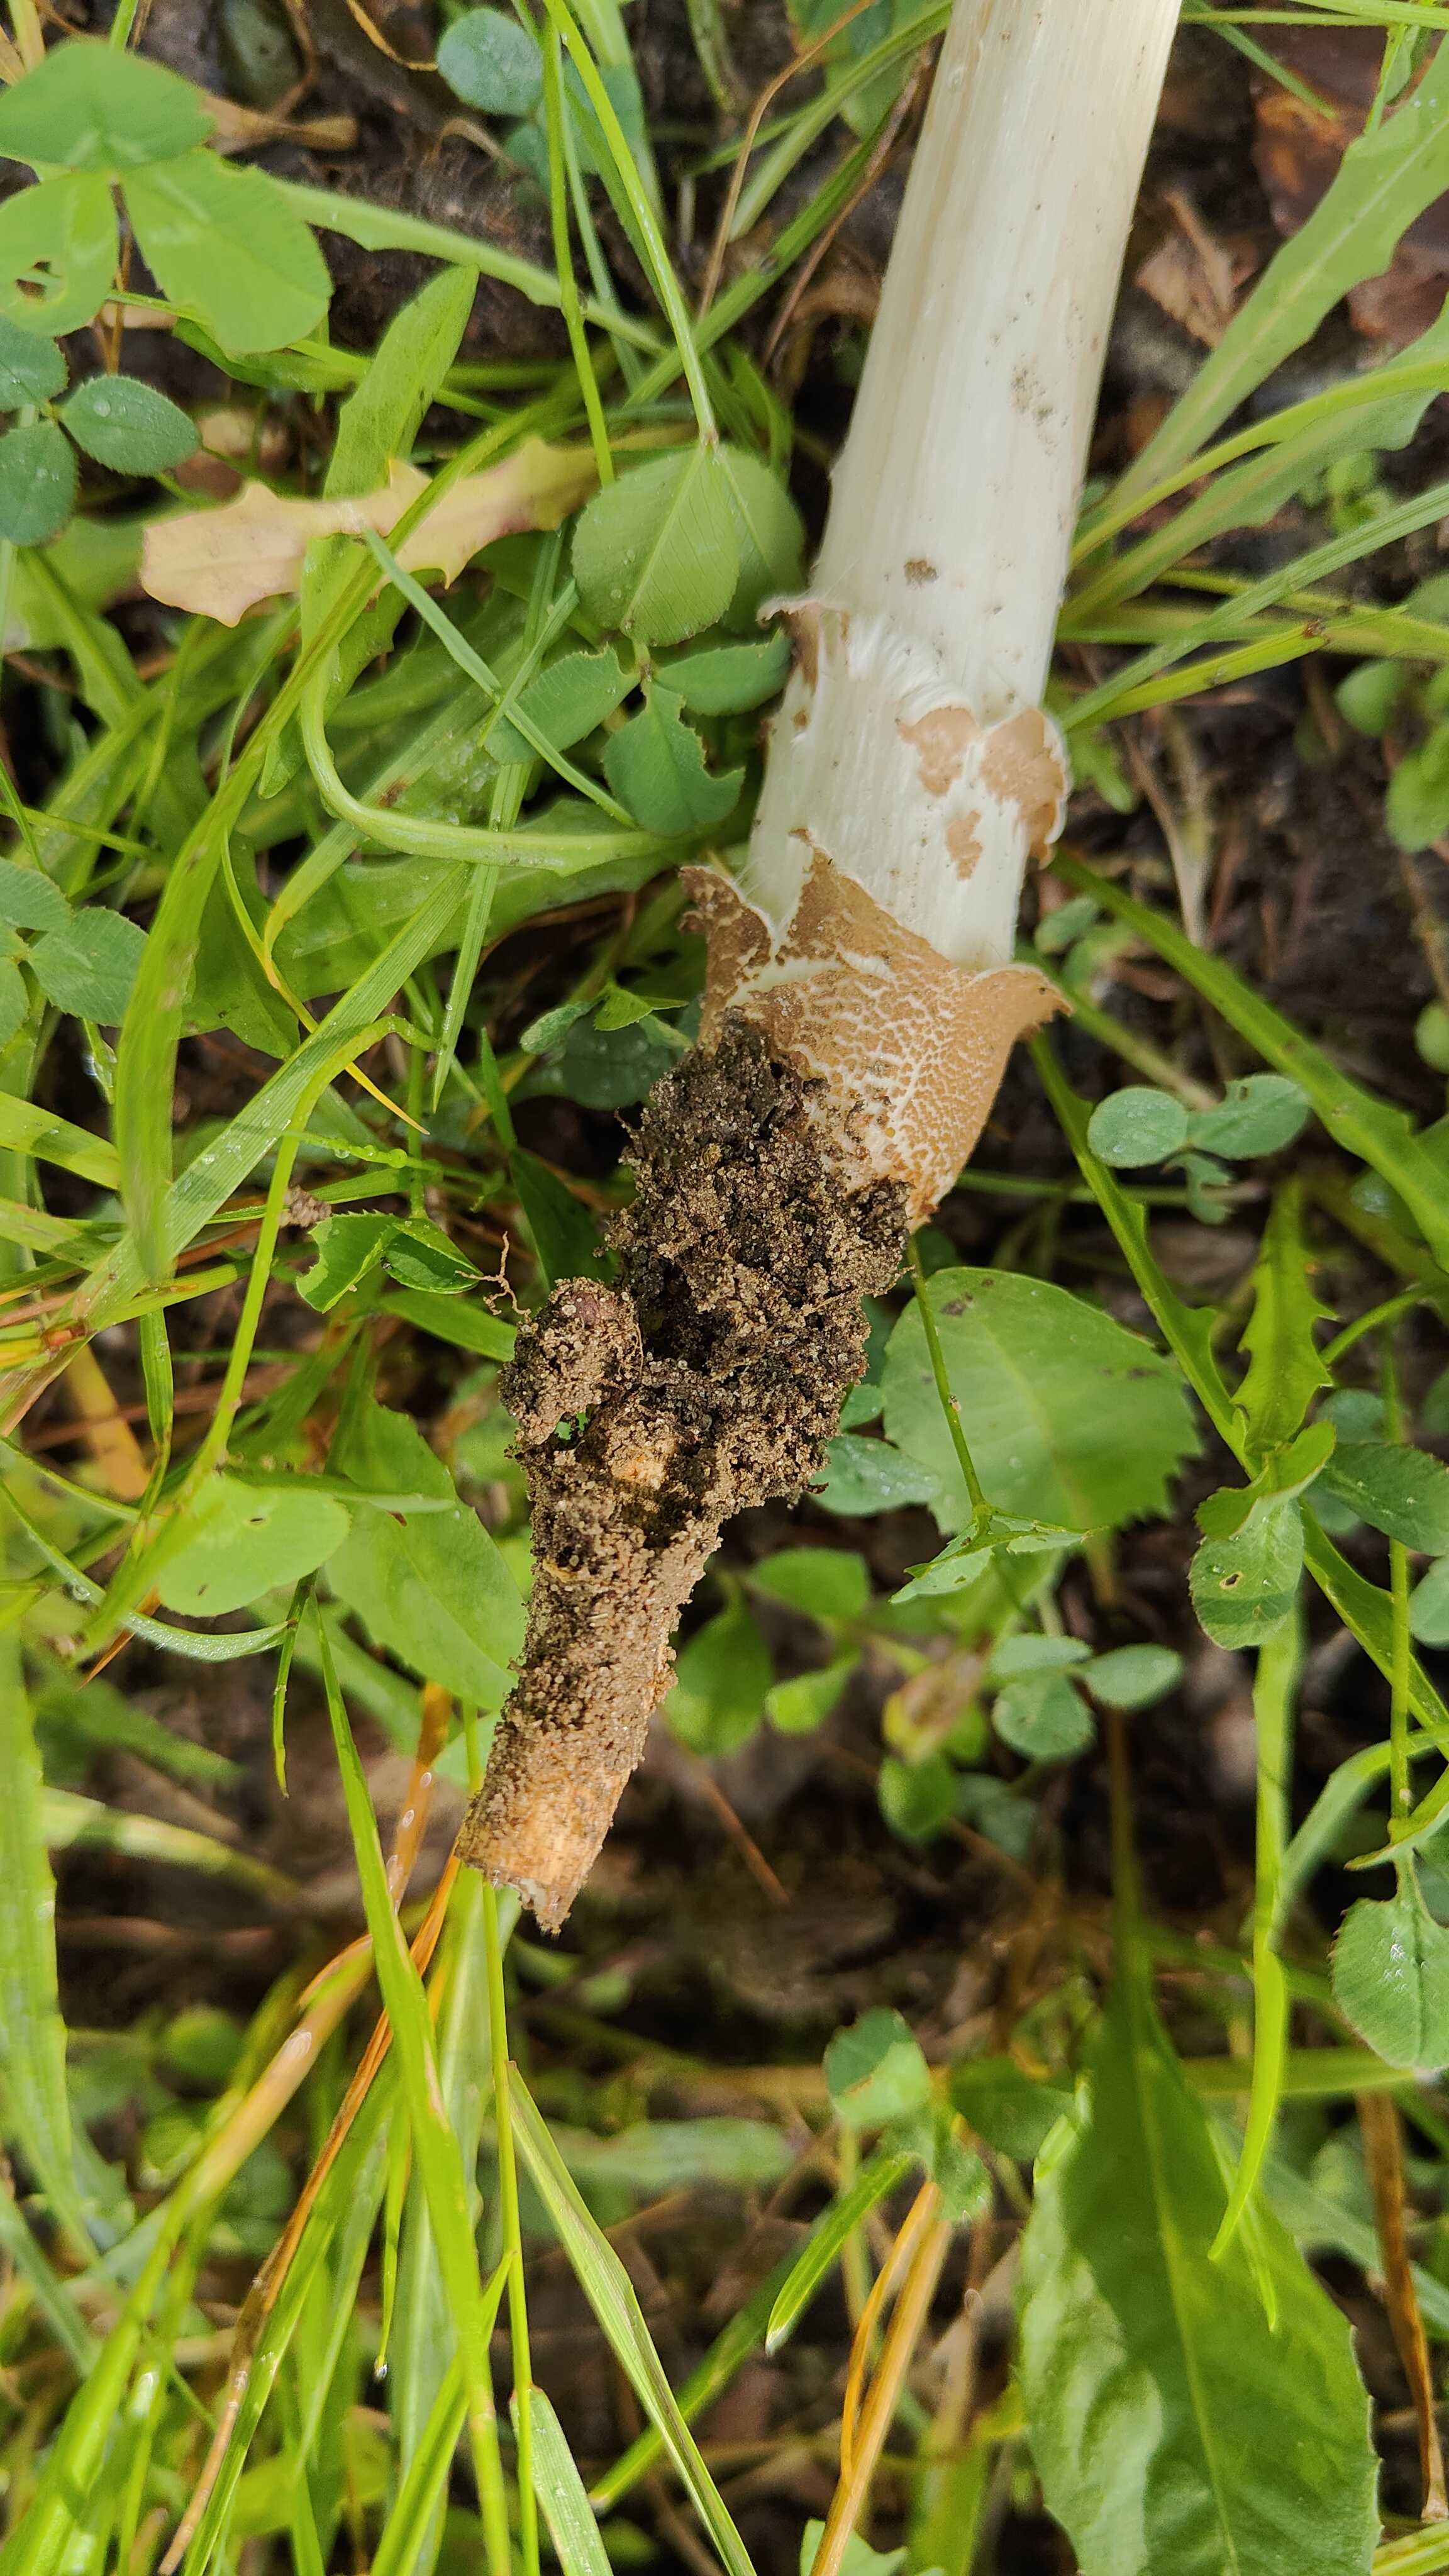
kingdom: Fungi
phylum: Basidiomycota
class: Agaricomycetes
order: Agaricales
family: Physalacriaceae
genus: Hymenopellis
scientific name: Hymenopellis radicata
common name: almindelig pælerodshat
